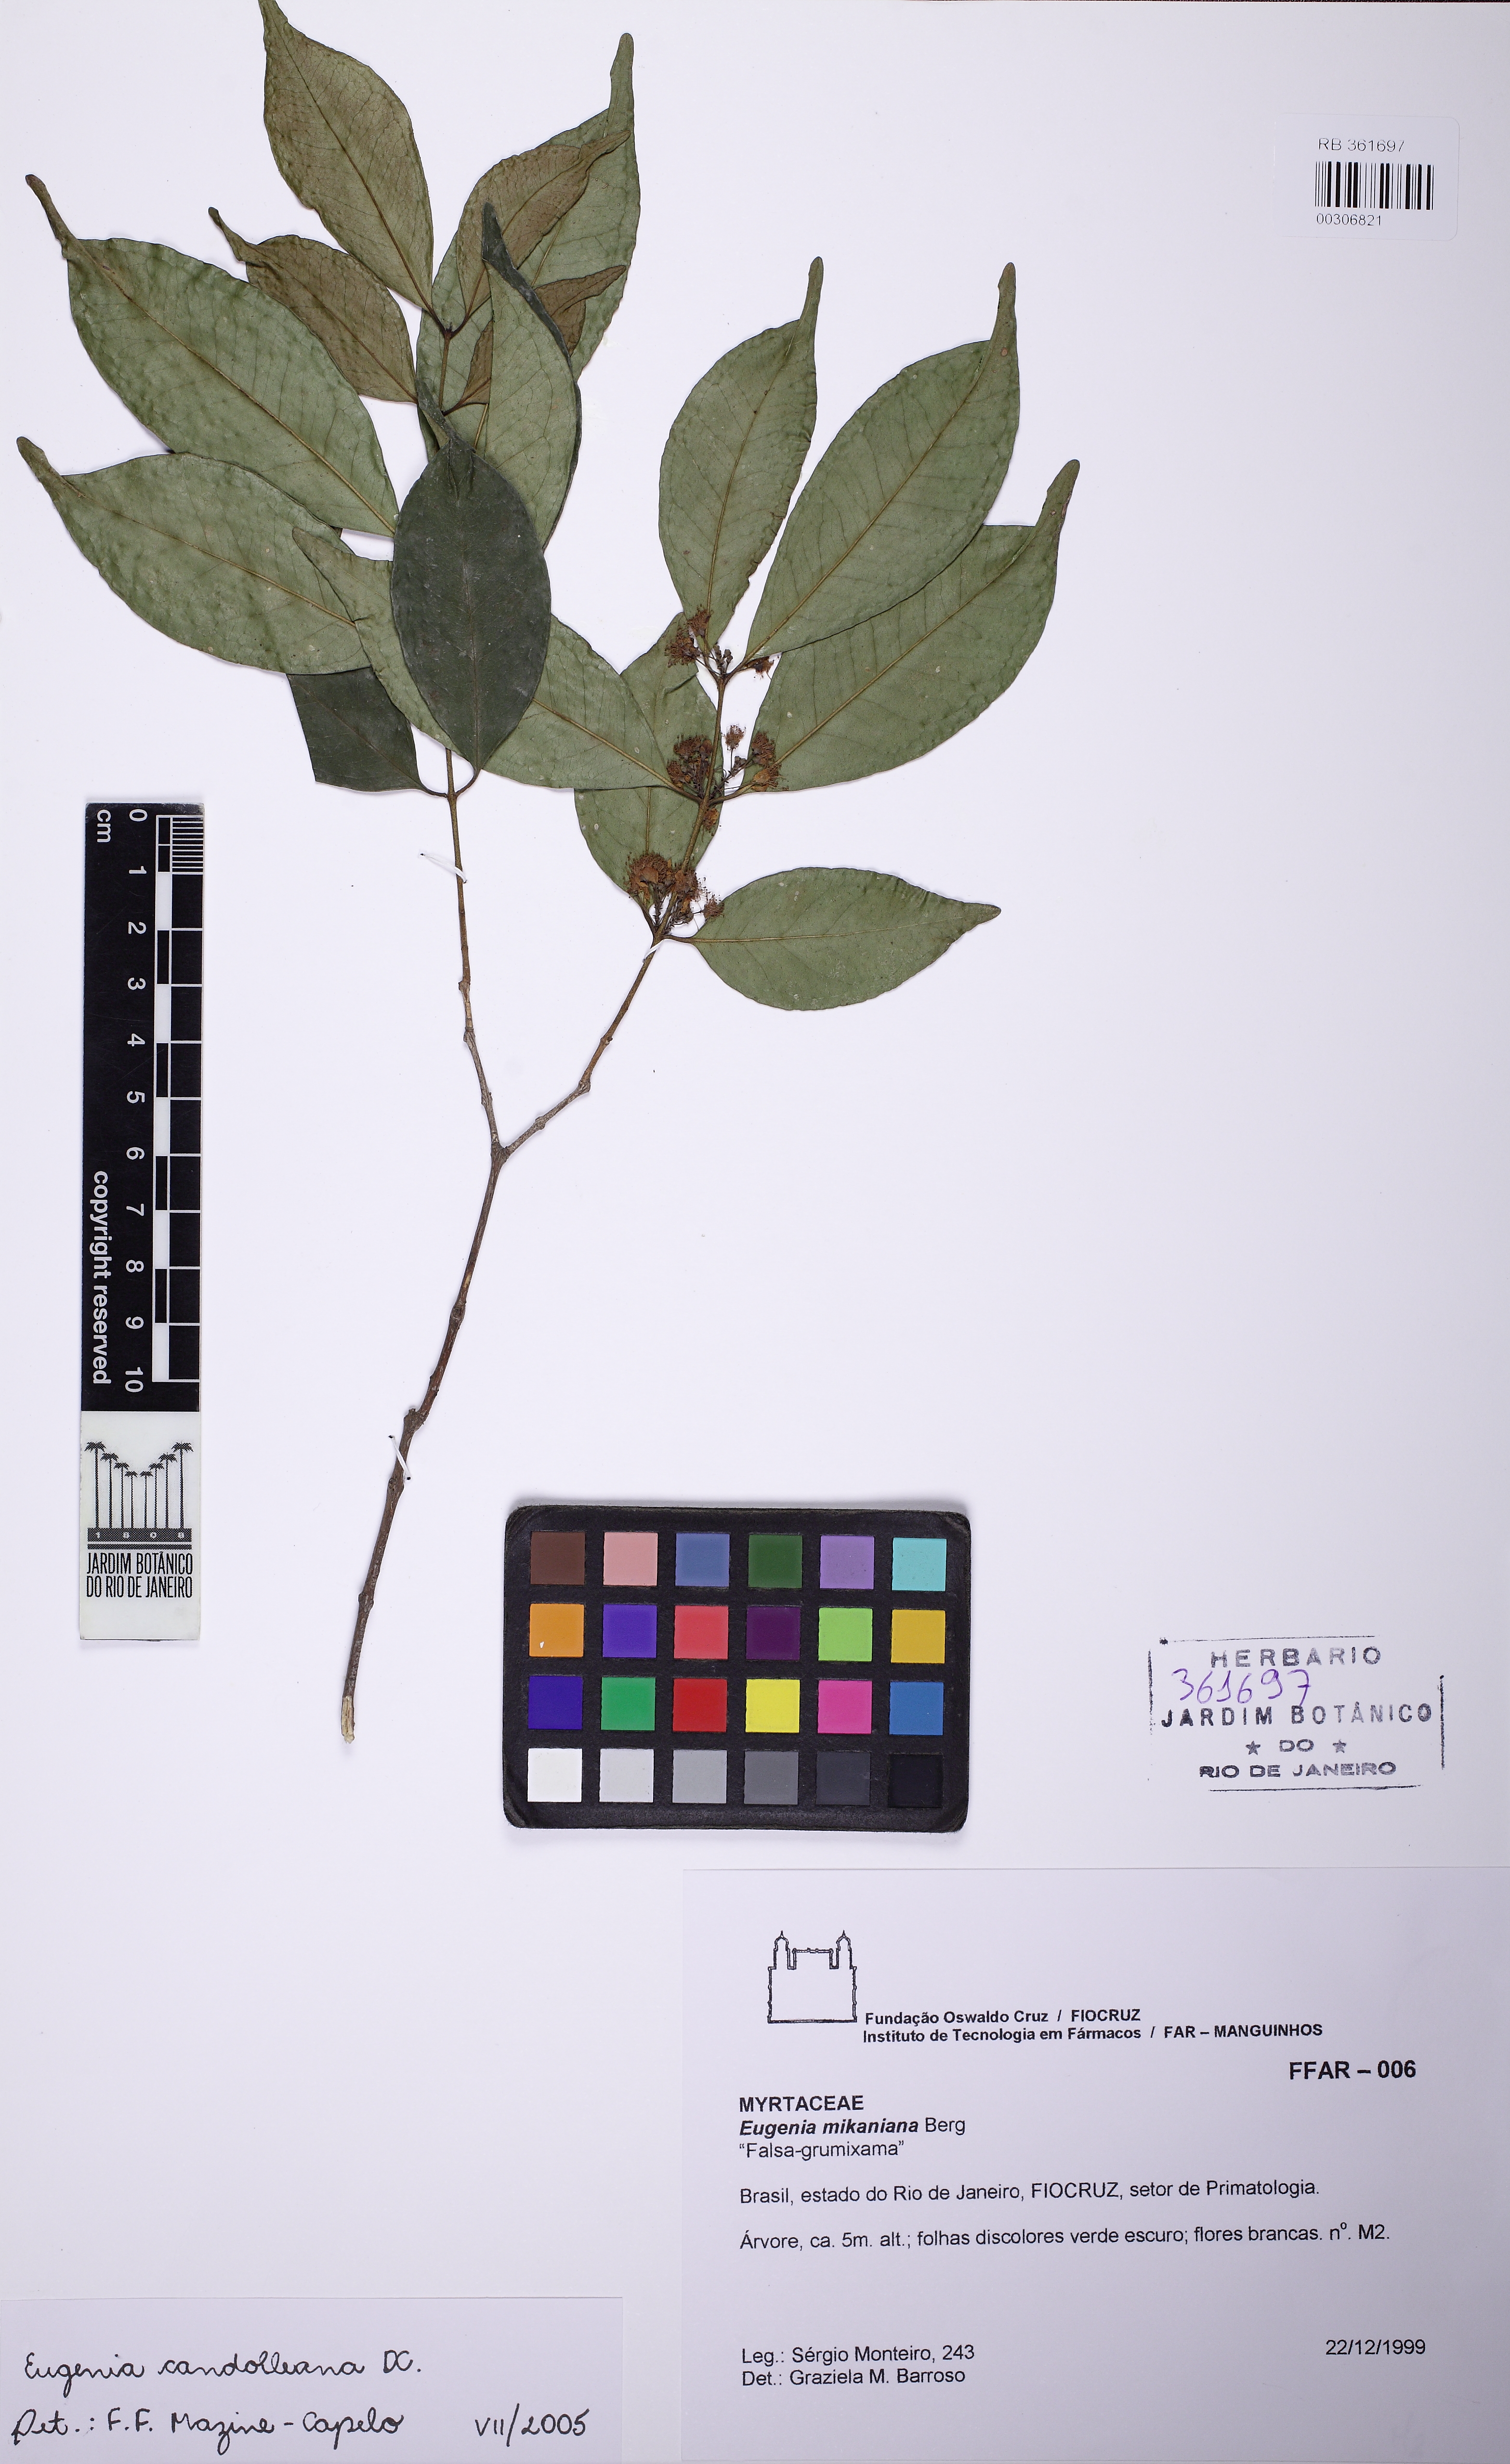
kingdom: Plantae
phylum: Tracheophyta
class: Magnoliopsida
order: Myrtales
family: Myrtaceae
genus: Eugenia
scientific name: Eugenia candolleana
